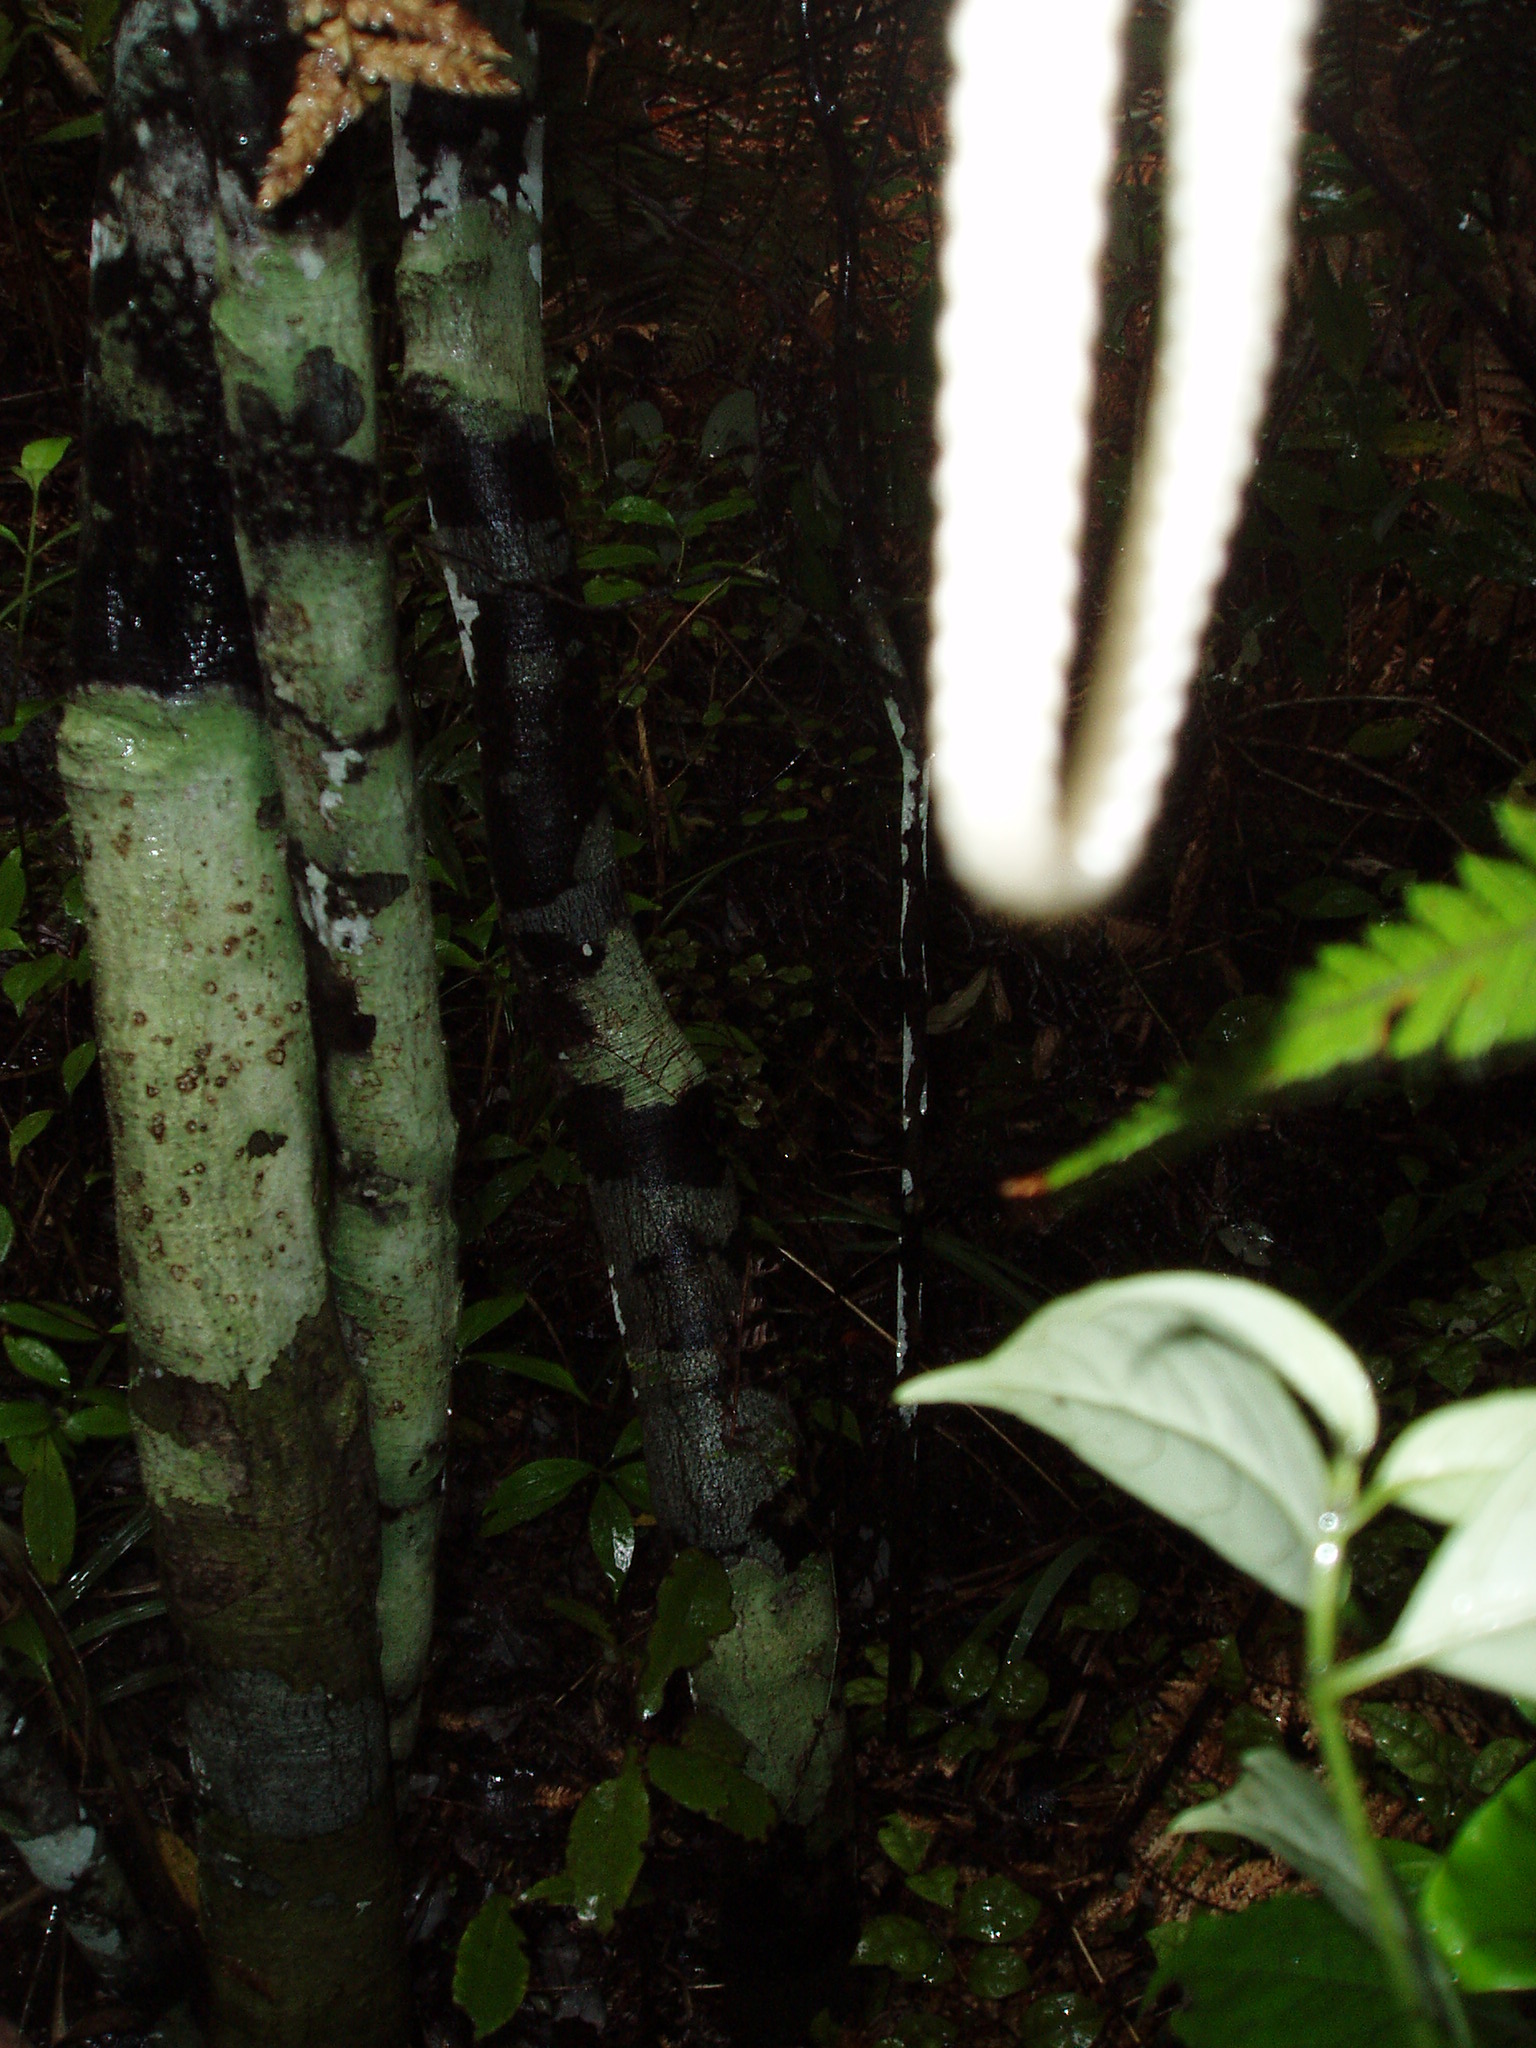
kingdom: Plantae
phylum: Tracheophyta
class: Magnoliopsida
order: Canellales
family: Winteraceae
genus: Pseudowintera
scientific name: Pseudowintera colorata
